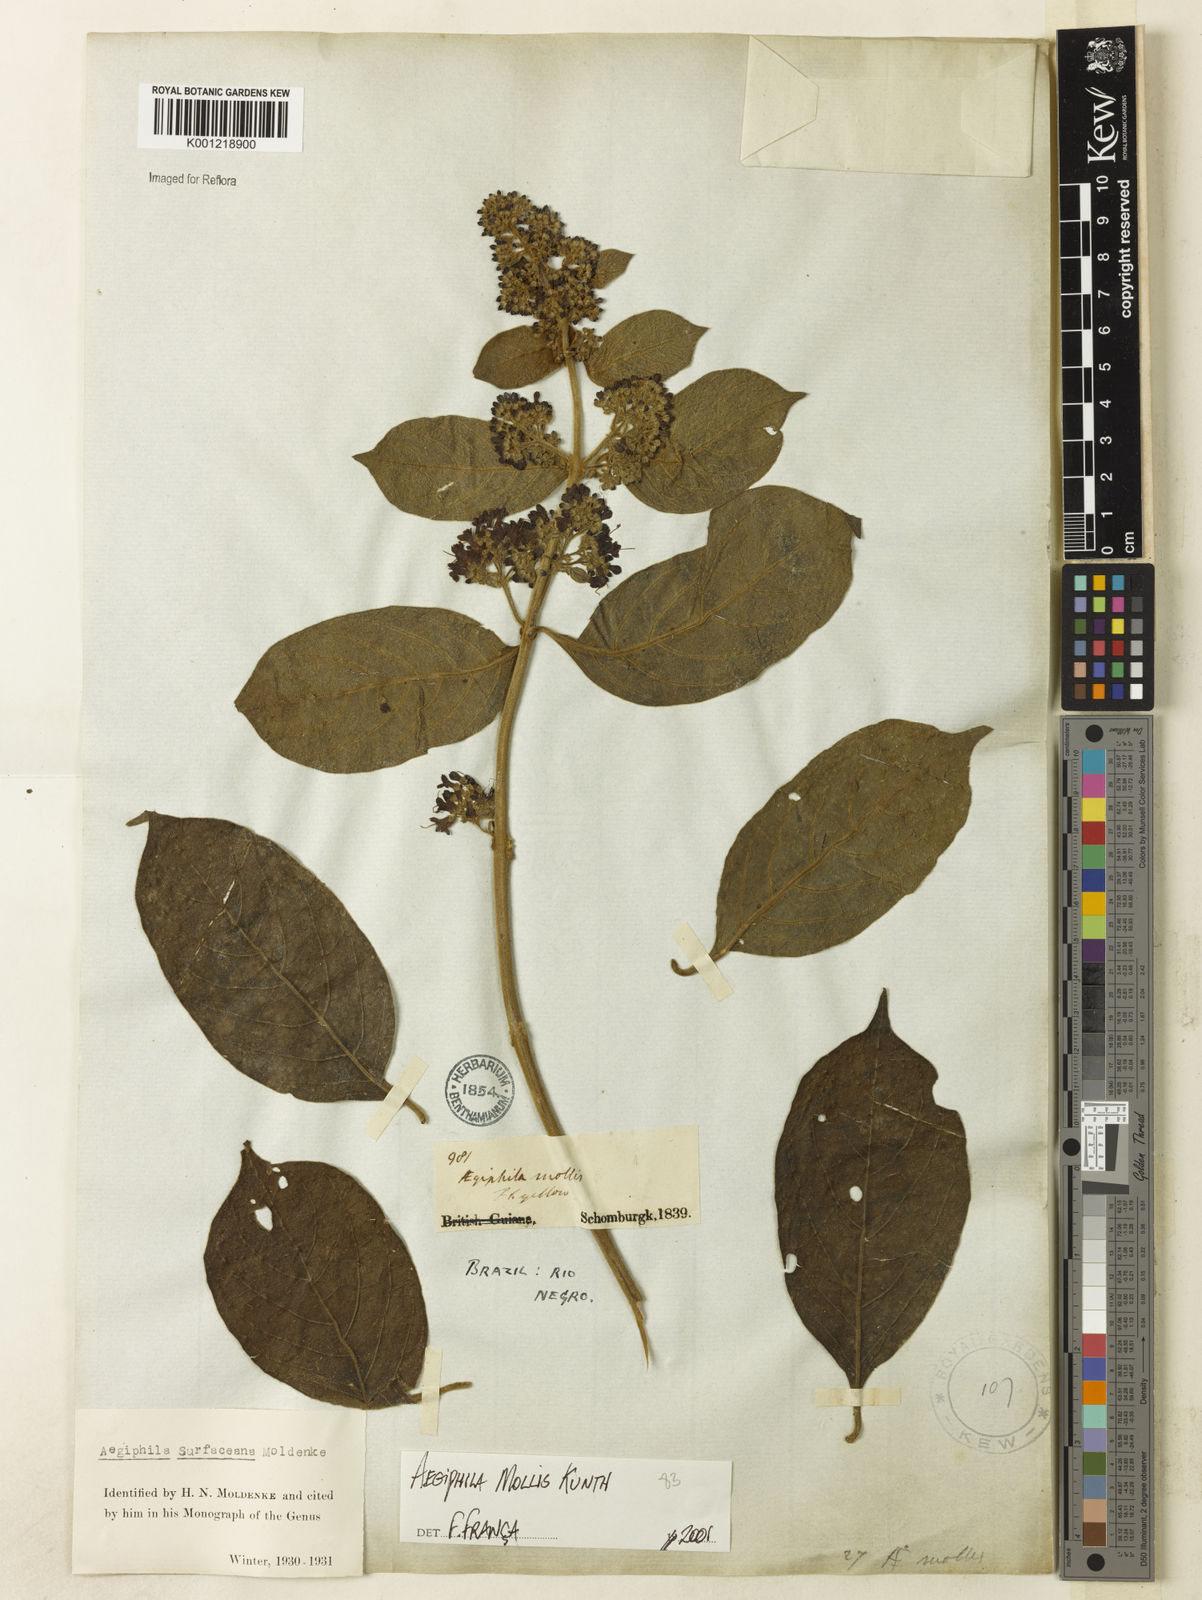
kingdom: Plantae
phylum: Tracheophyta
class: Magnoliopsida
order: Lamiales
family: Lamiaceae
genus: Aegiphila
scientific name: Aegiphila mollis
